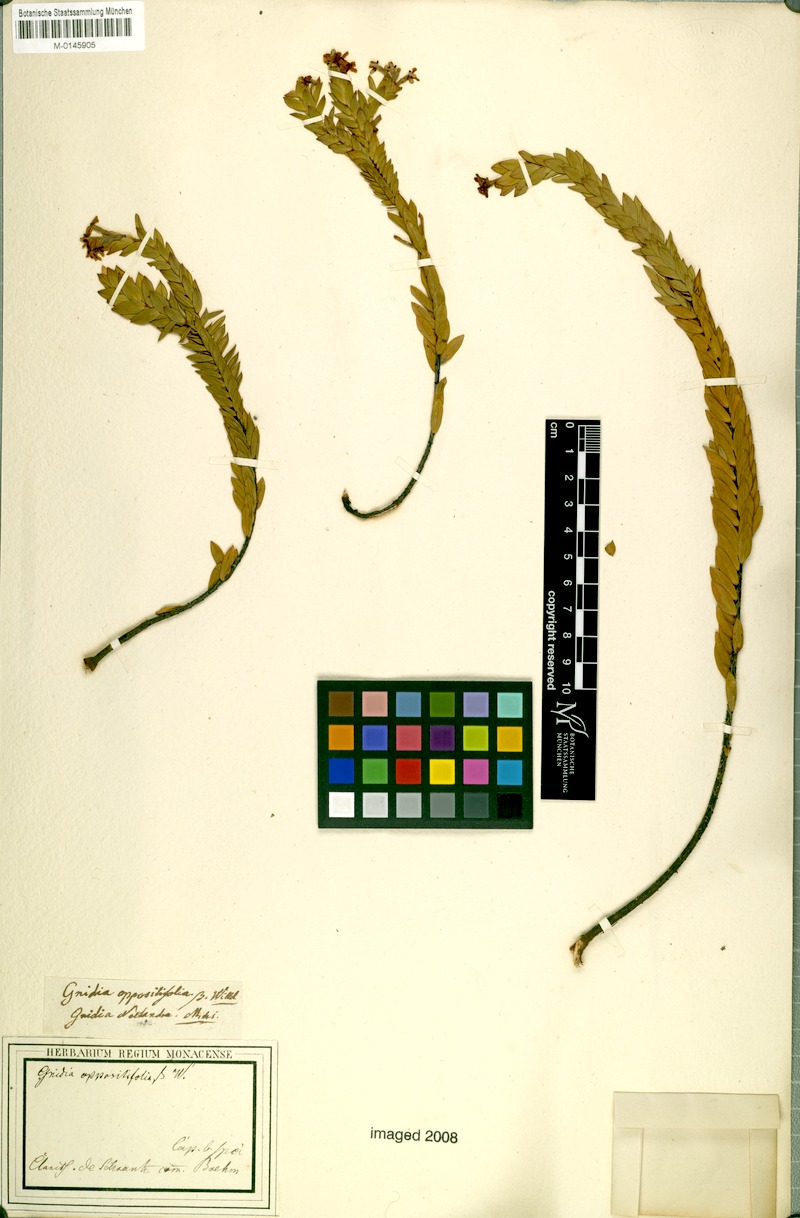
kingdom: Plantae
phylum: Tracheophyta
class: Magnoliopsida
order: Malvales
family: Thymelaeaceae
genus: Gnidia
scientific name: Gnidia oppositifolia
